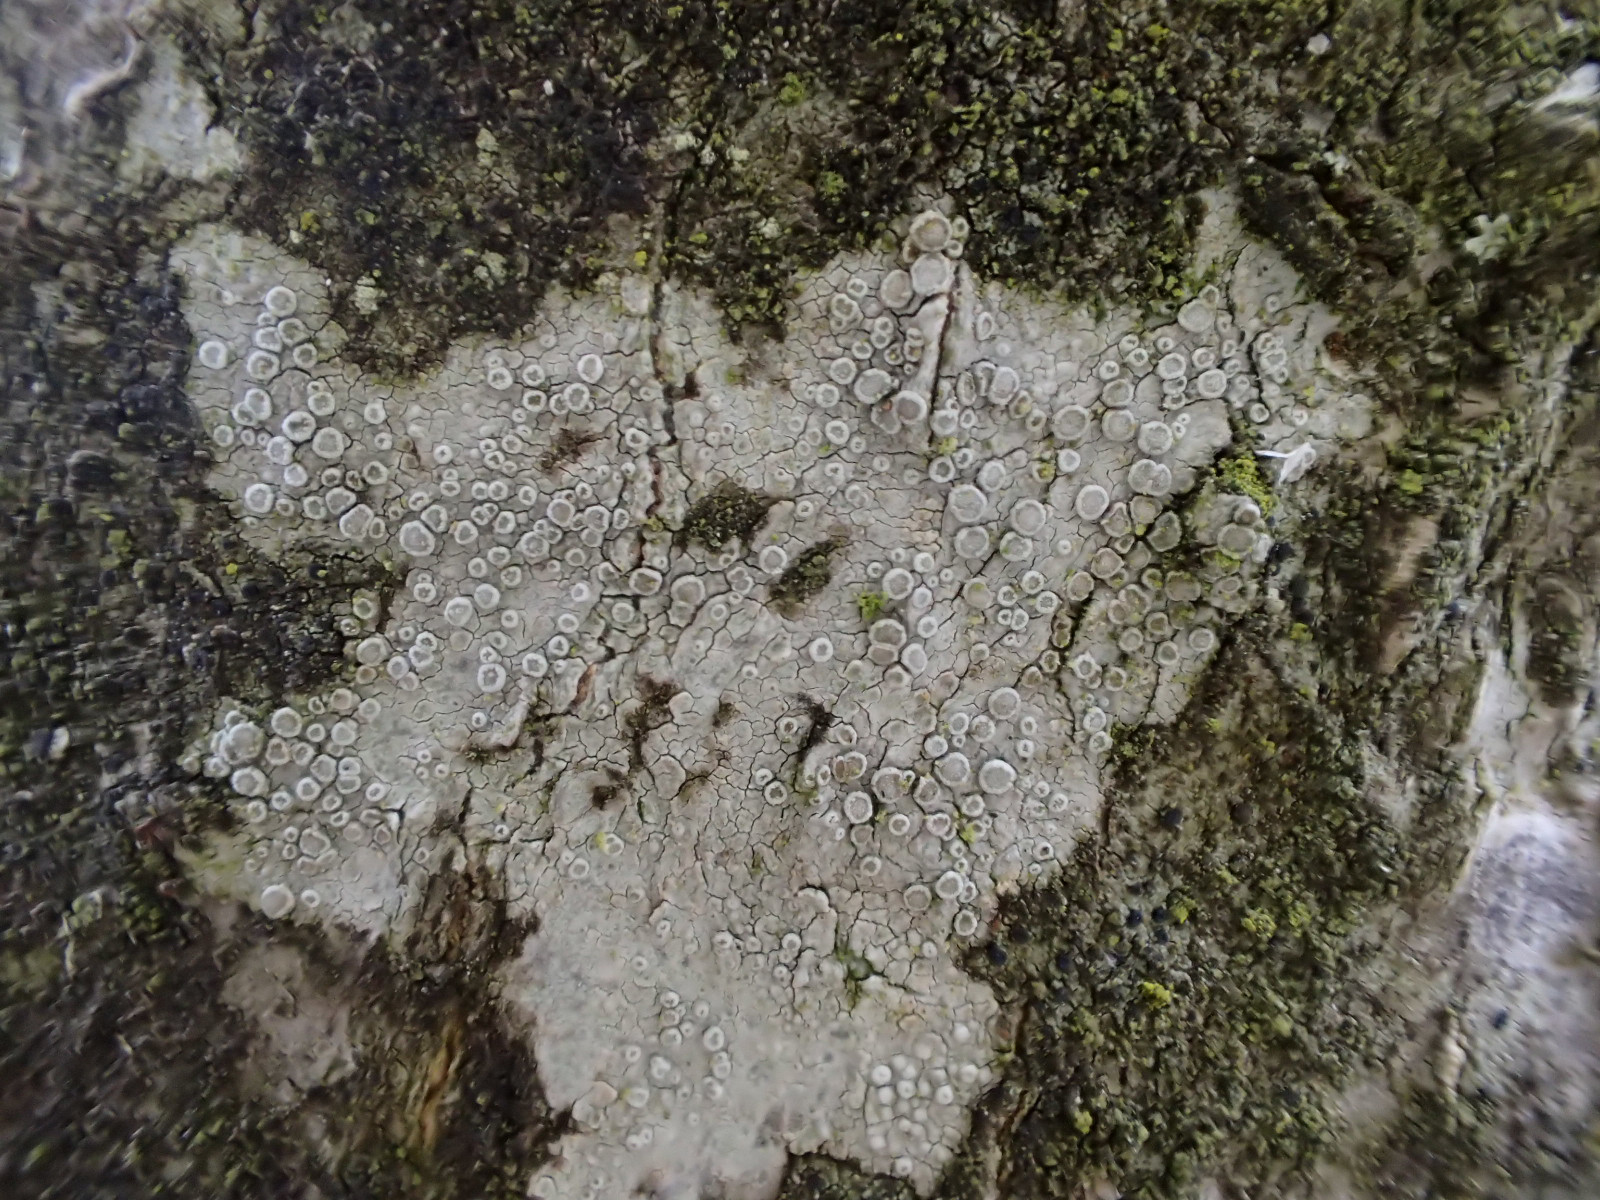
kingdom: Fungi
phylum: Ascomycota
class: Lecanoromycetes
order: Lecanorales
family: Lecanoraceae
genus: Glaucomaria
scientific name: Glaucomaria carpinea
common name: hviddugget kantskivelav
